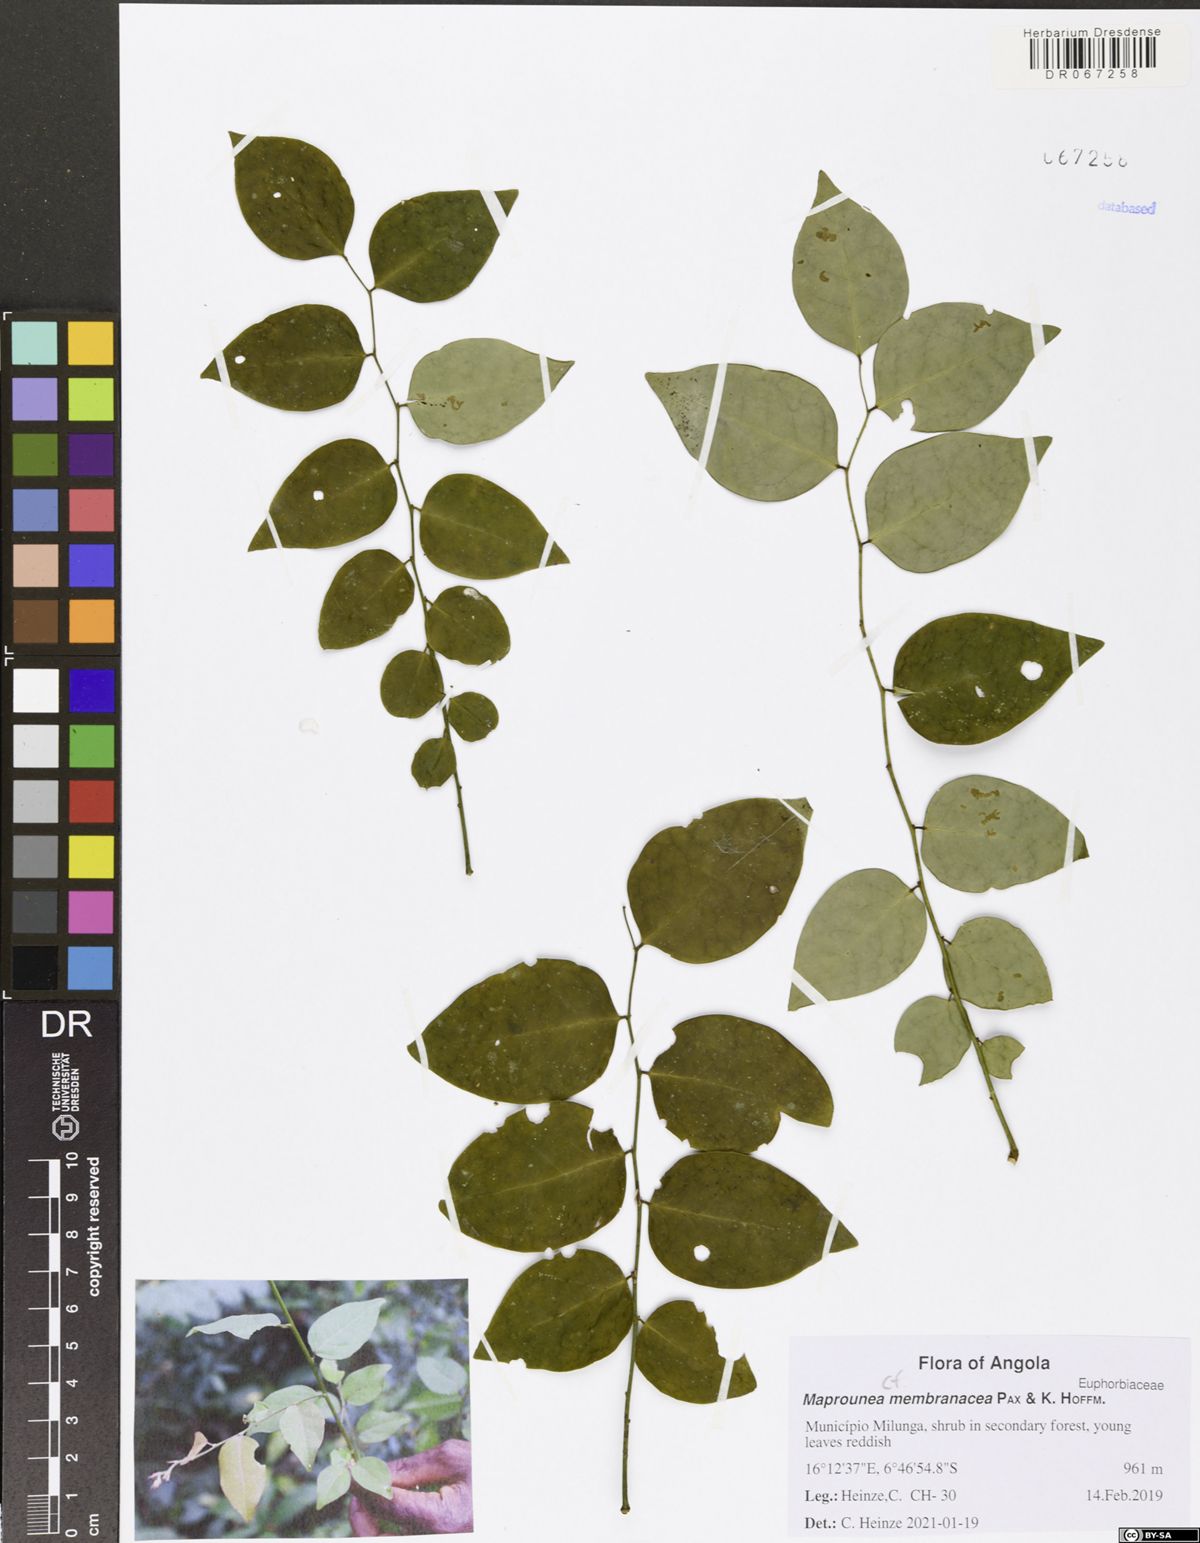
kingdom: Plantae
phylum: Tracheophyta
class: Magnoliopsida
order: Malpighiales
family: Euphorbiaceae
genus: Maprounea
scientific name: Maprounea membranacea
